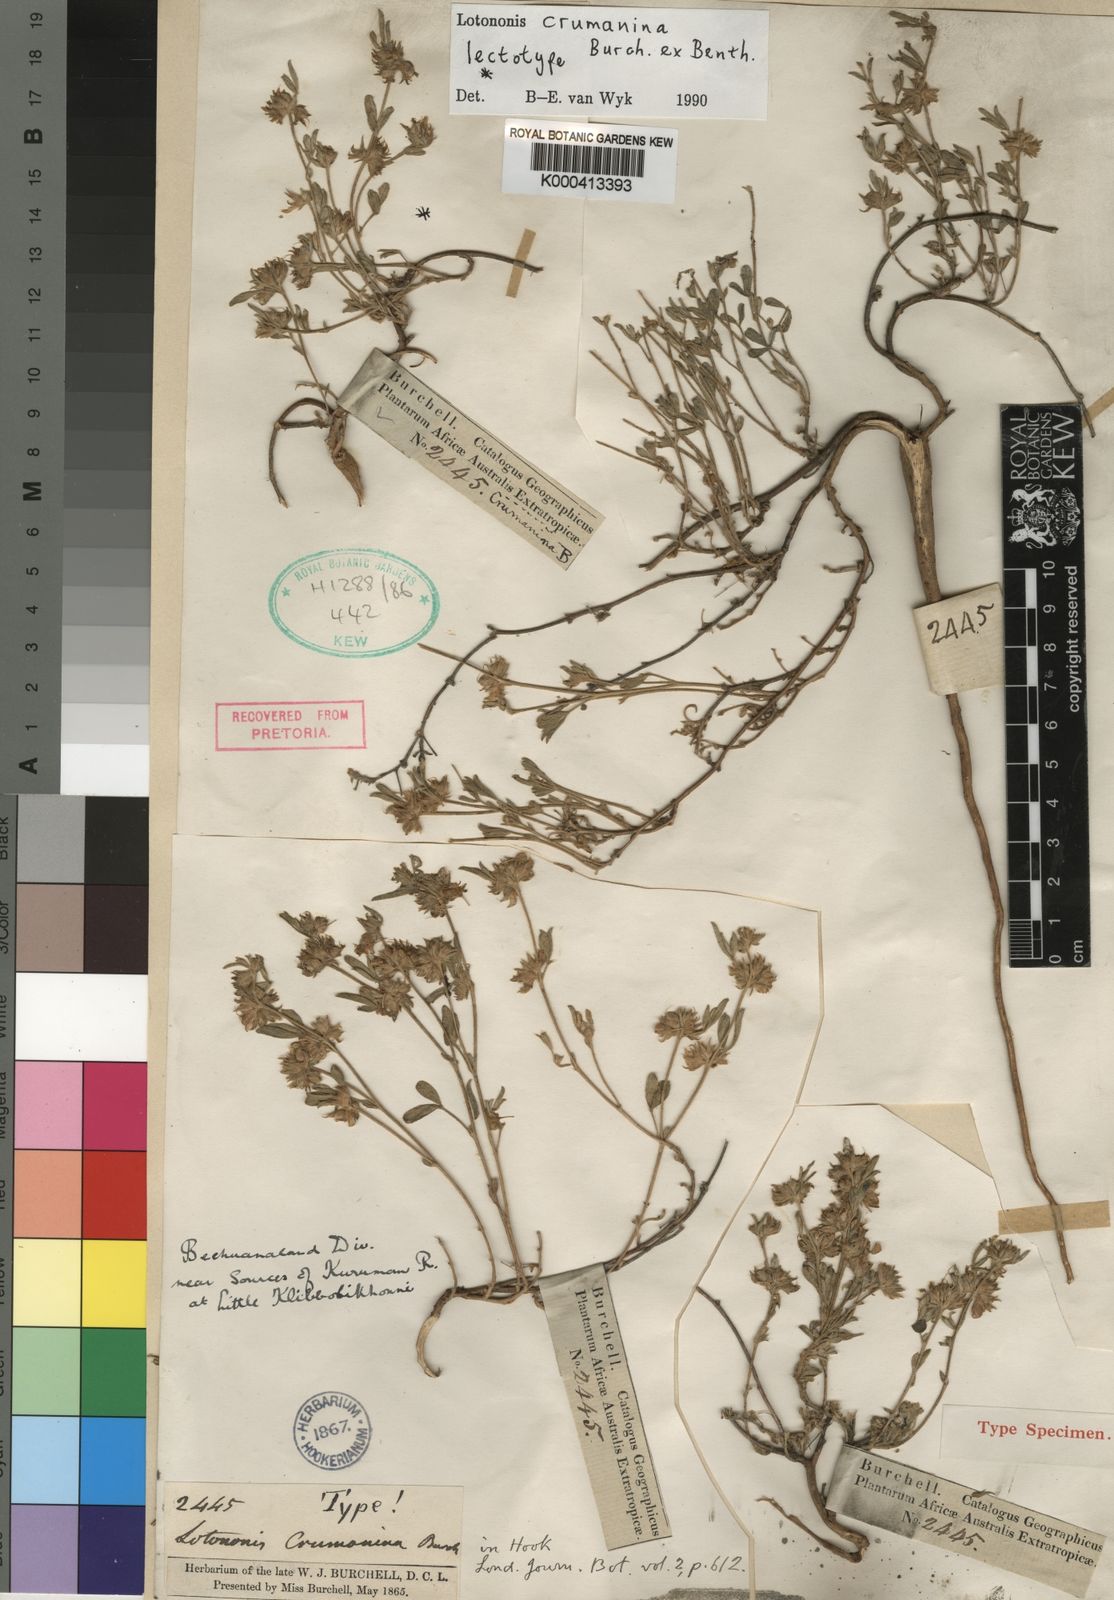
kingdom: Plantae
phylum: Tracheophyta
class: Magnoliopsida
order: Fabales
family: Fabaceae
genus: Lotononis
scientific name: Lotononis
